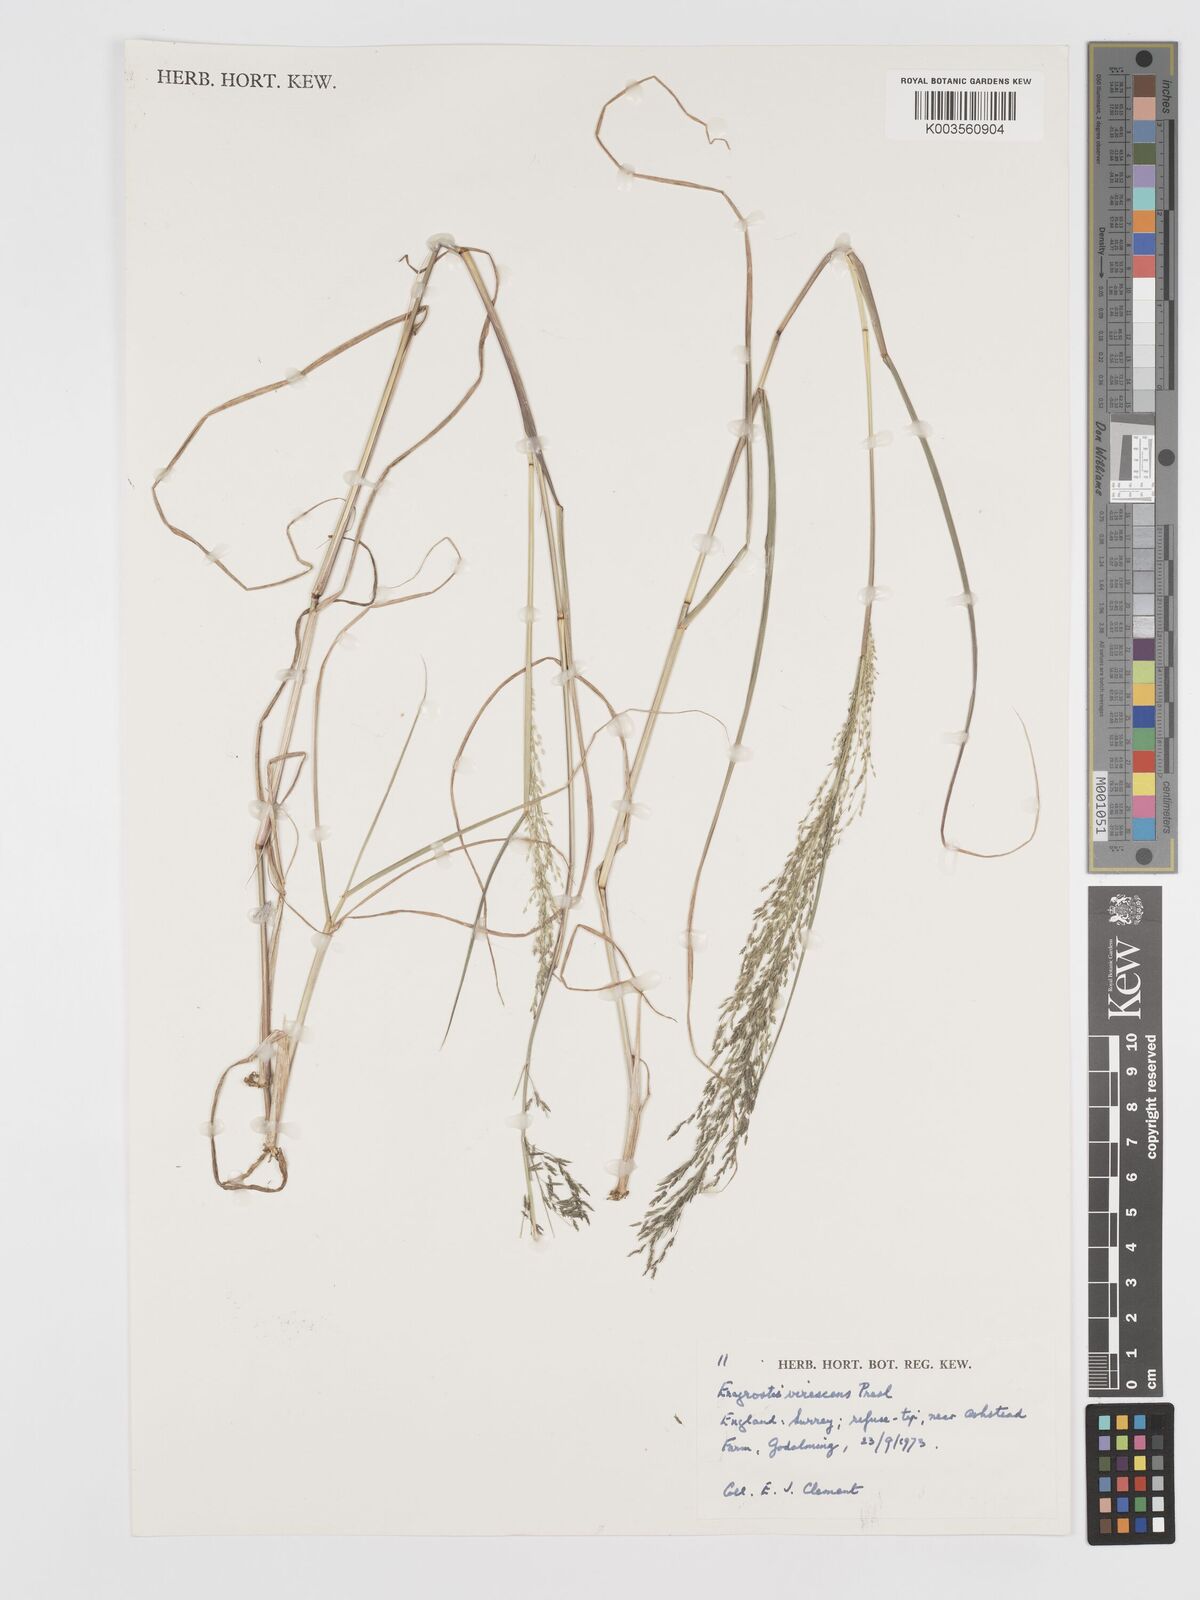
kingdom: Plantae
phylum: Tracheophyta
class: Liliopsida
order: Poales
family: Poaceae
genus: Eragrostis
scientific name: Eragrostis mexicana
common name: Mexican love grass
